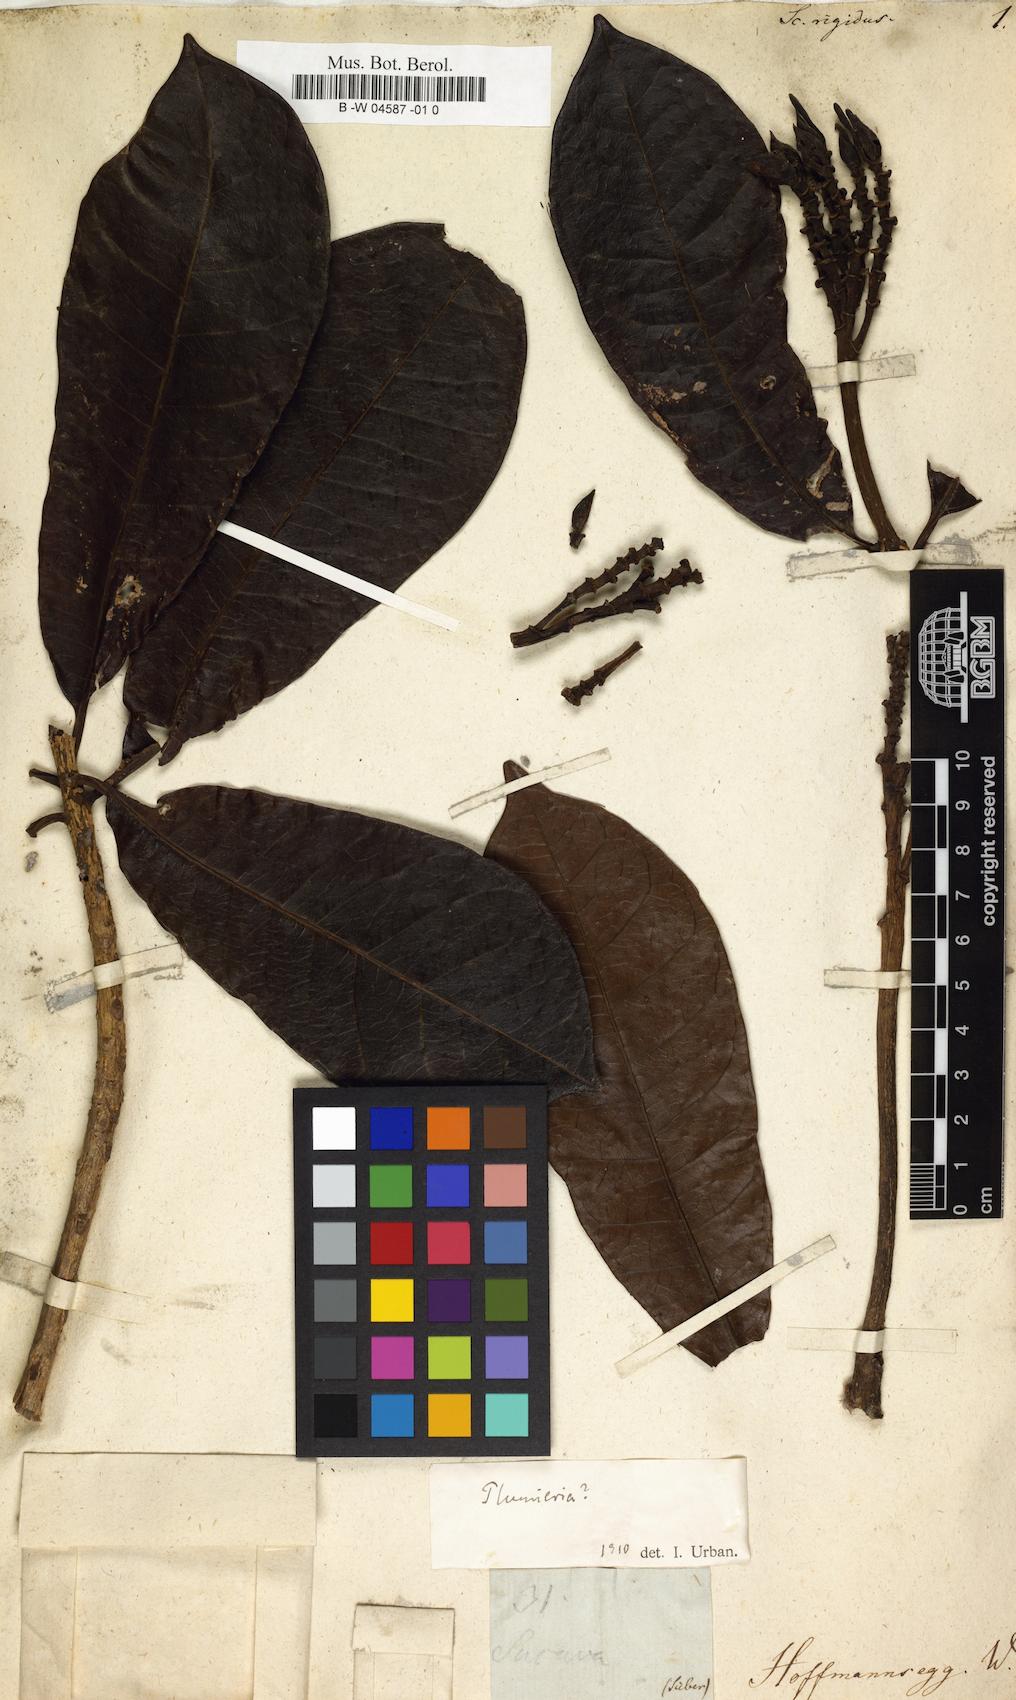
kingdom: Plantae
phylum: Tracheophyta
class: Magnoliopsida
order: Lamiales
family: Acanthaceae
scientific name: Acanthaceae
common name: Acanthaceae
